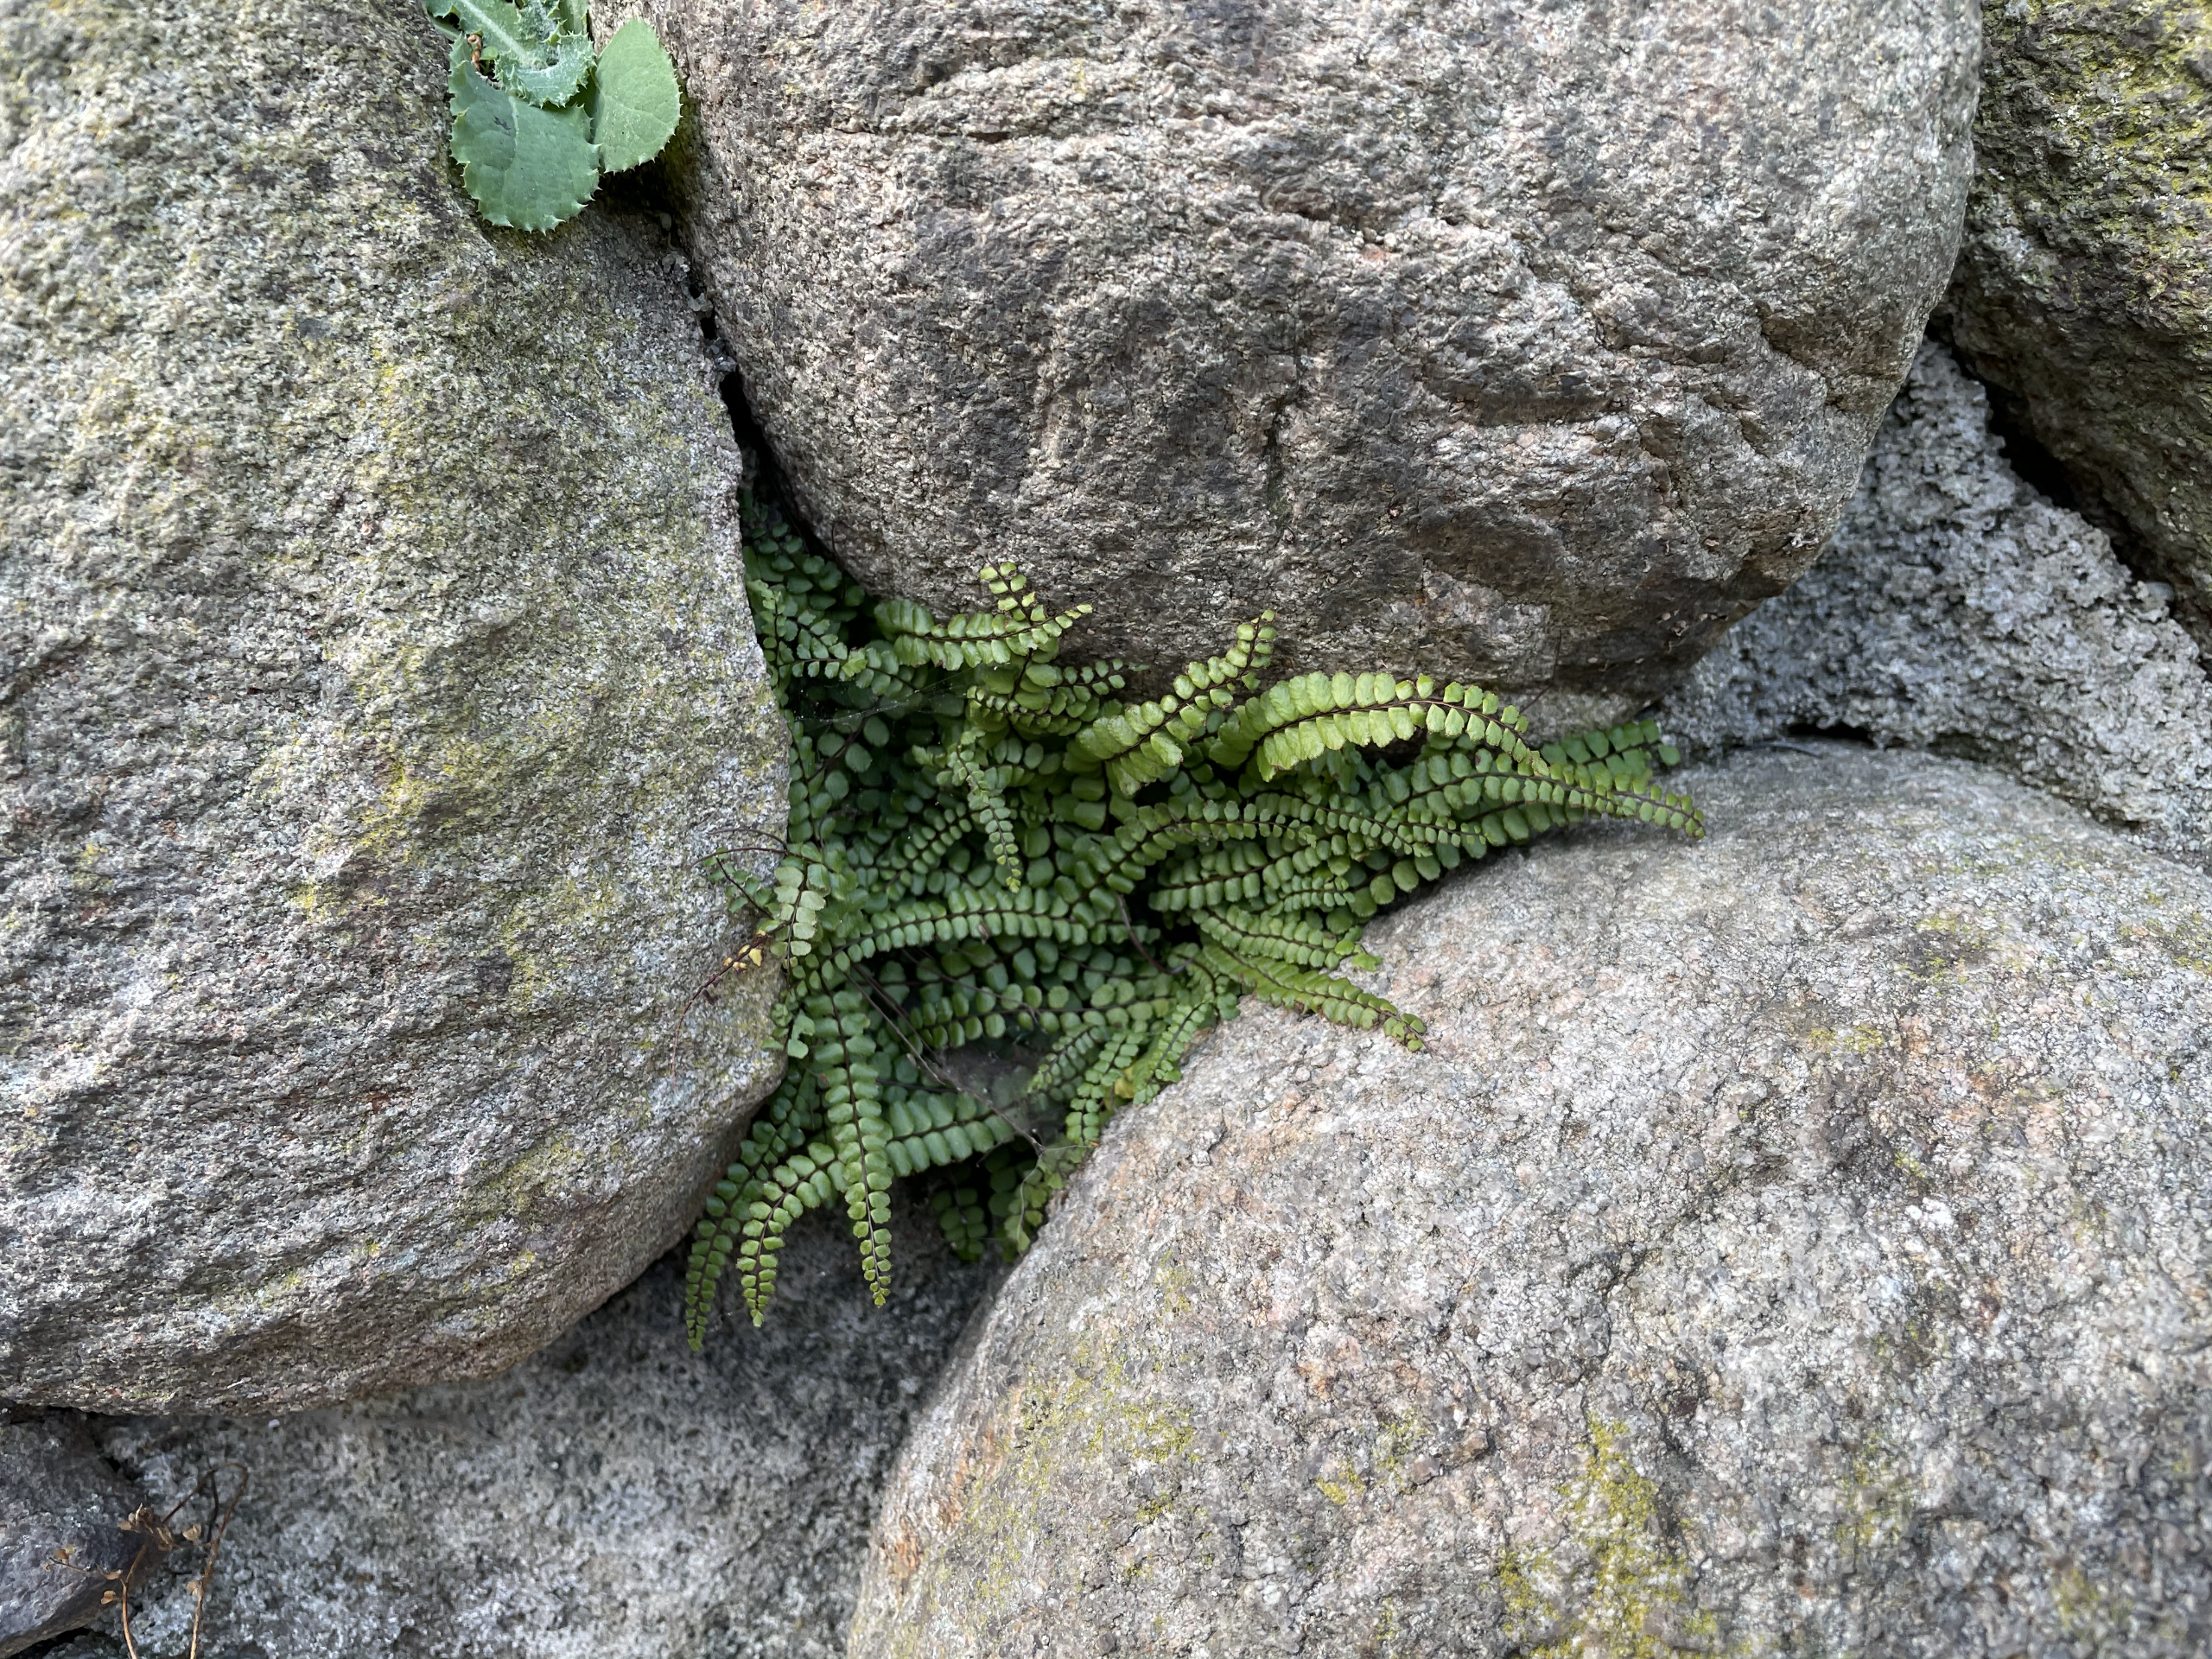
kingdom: Plantae
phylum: Tracheophyta
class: Polypodiopsida
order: Polypodiales
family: Aspleniaceae
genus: Asplenium
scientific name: Asplenium trichomanes
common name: Rundfinnet radeløv
